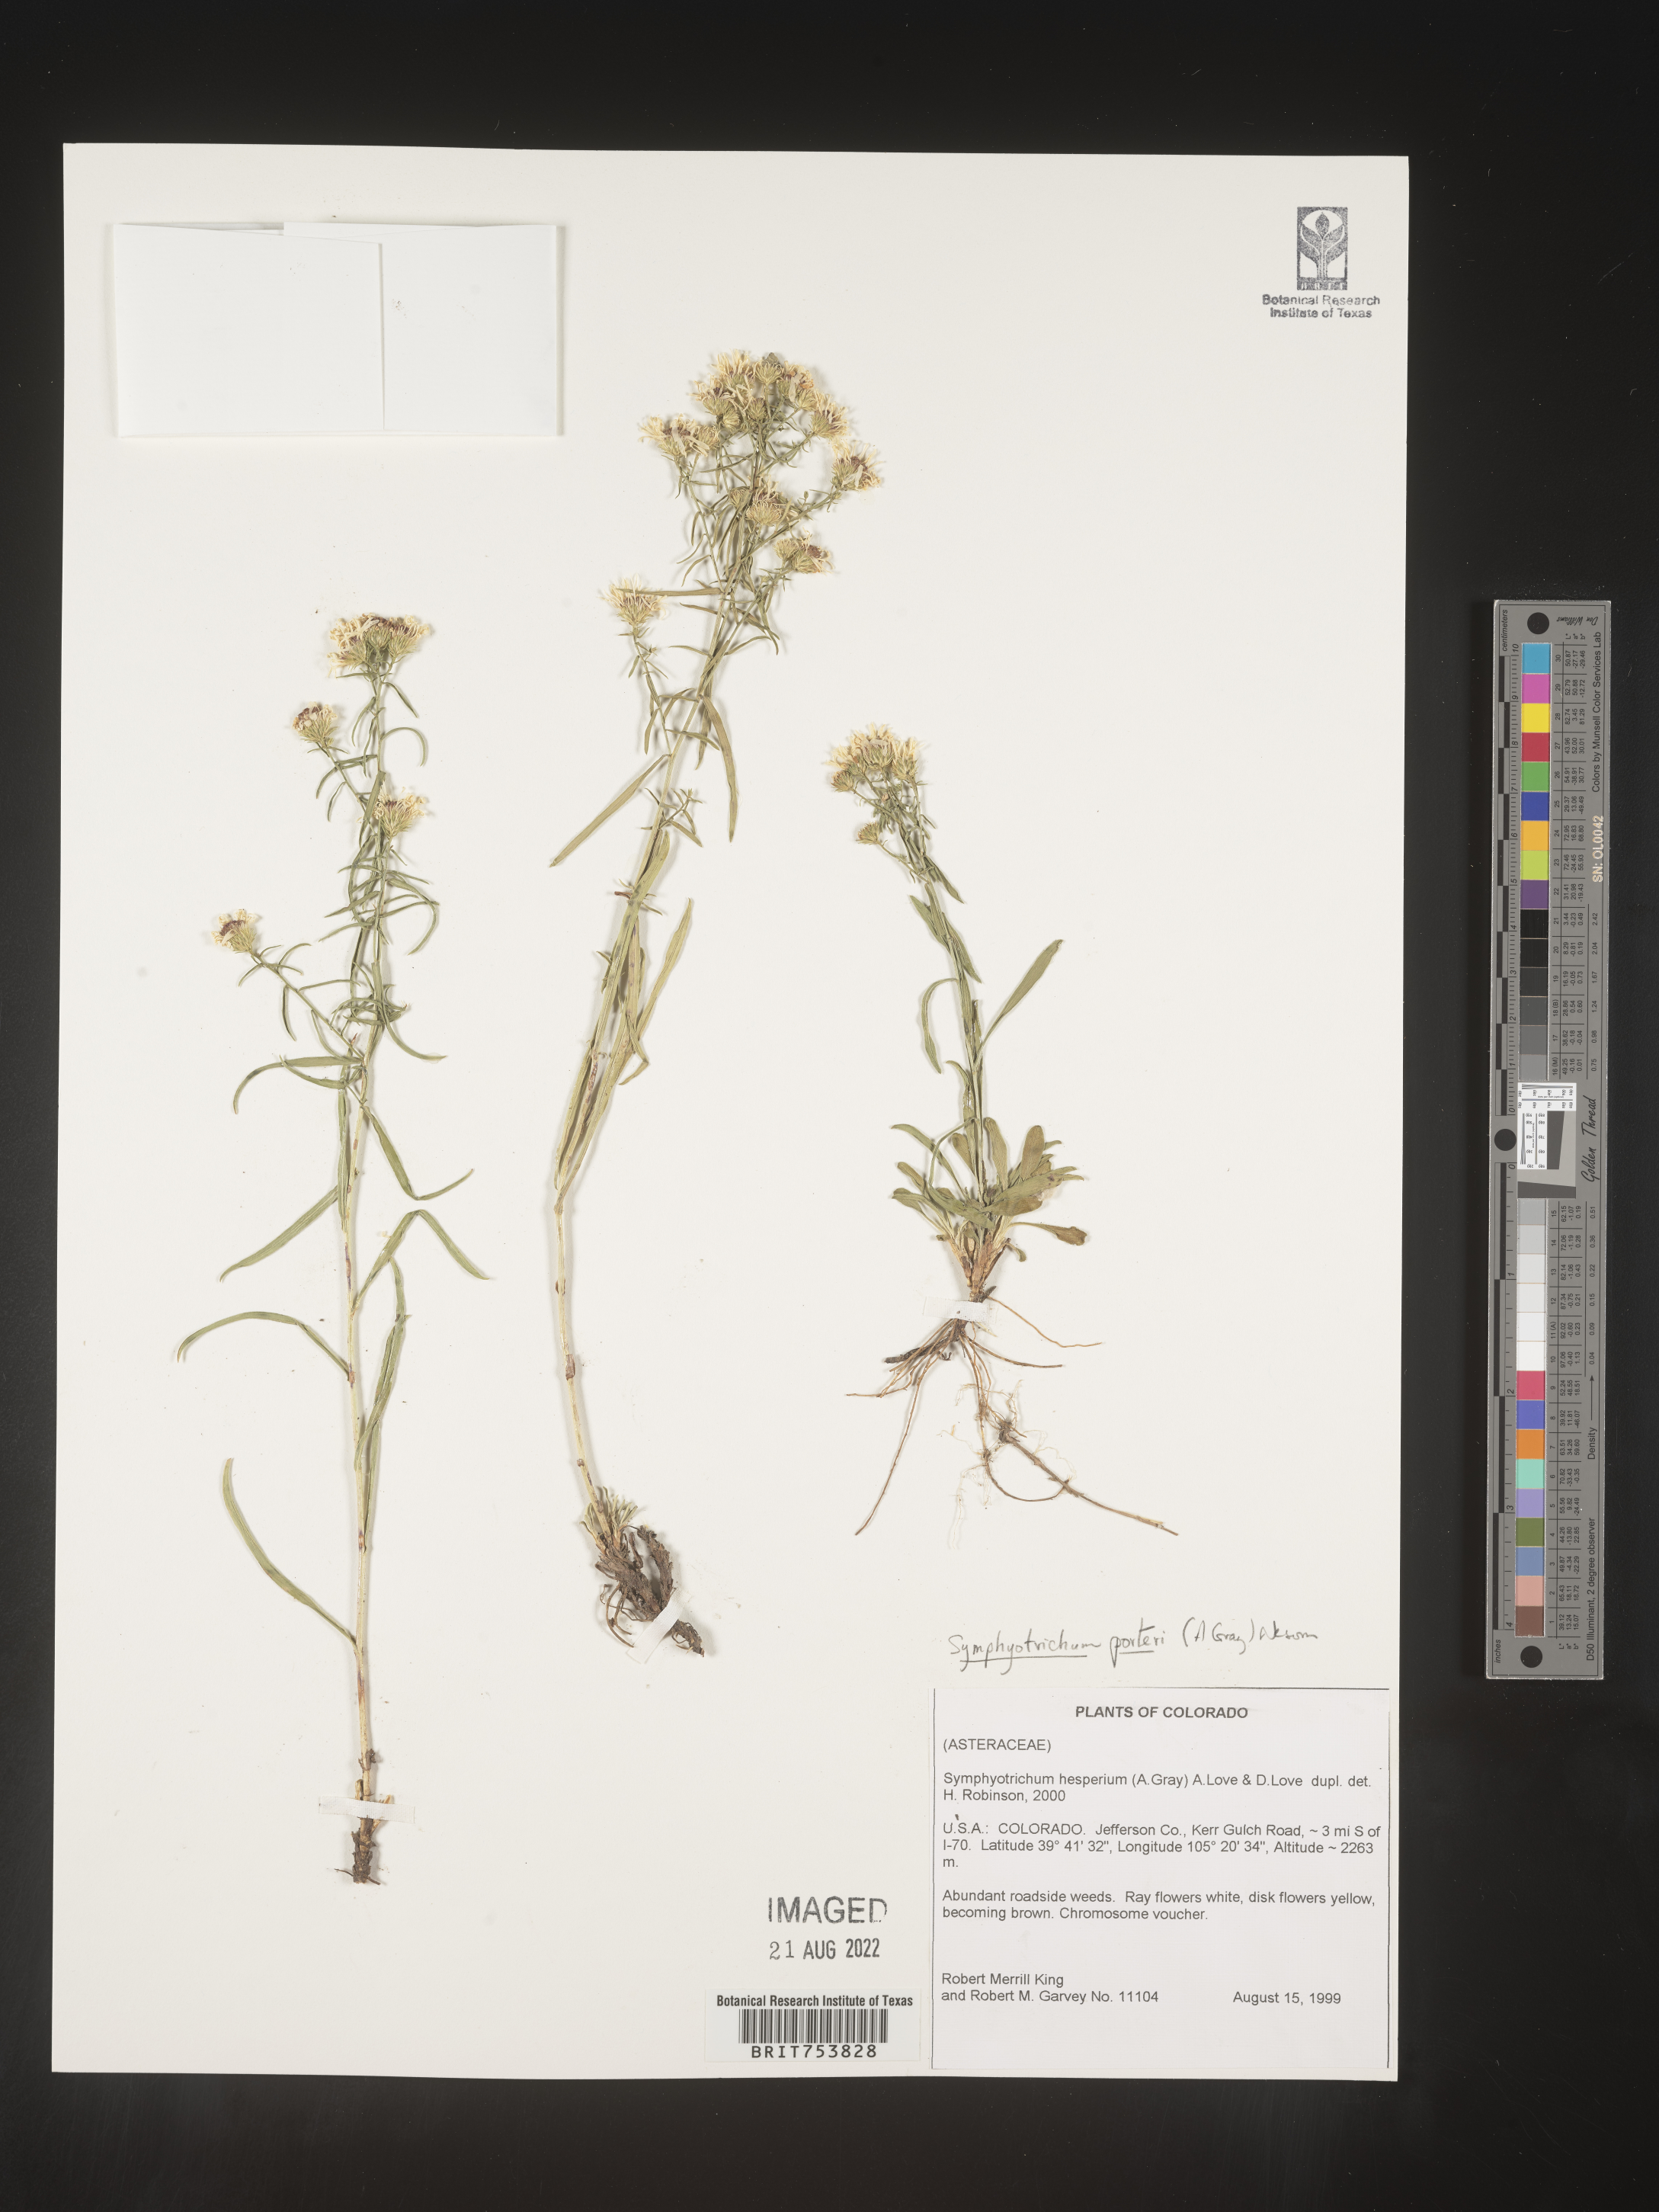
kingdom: Plantae
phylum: Tracheophyta
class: Magnoliopsida
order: Asterales
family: Asteraceae
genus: Symphyotrichum
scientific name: Symphyotrichum porteri
